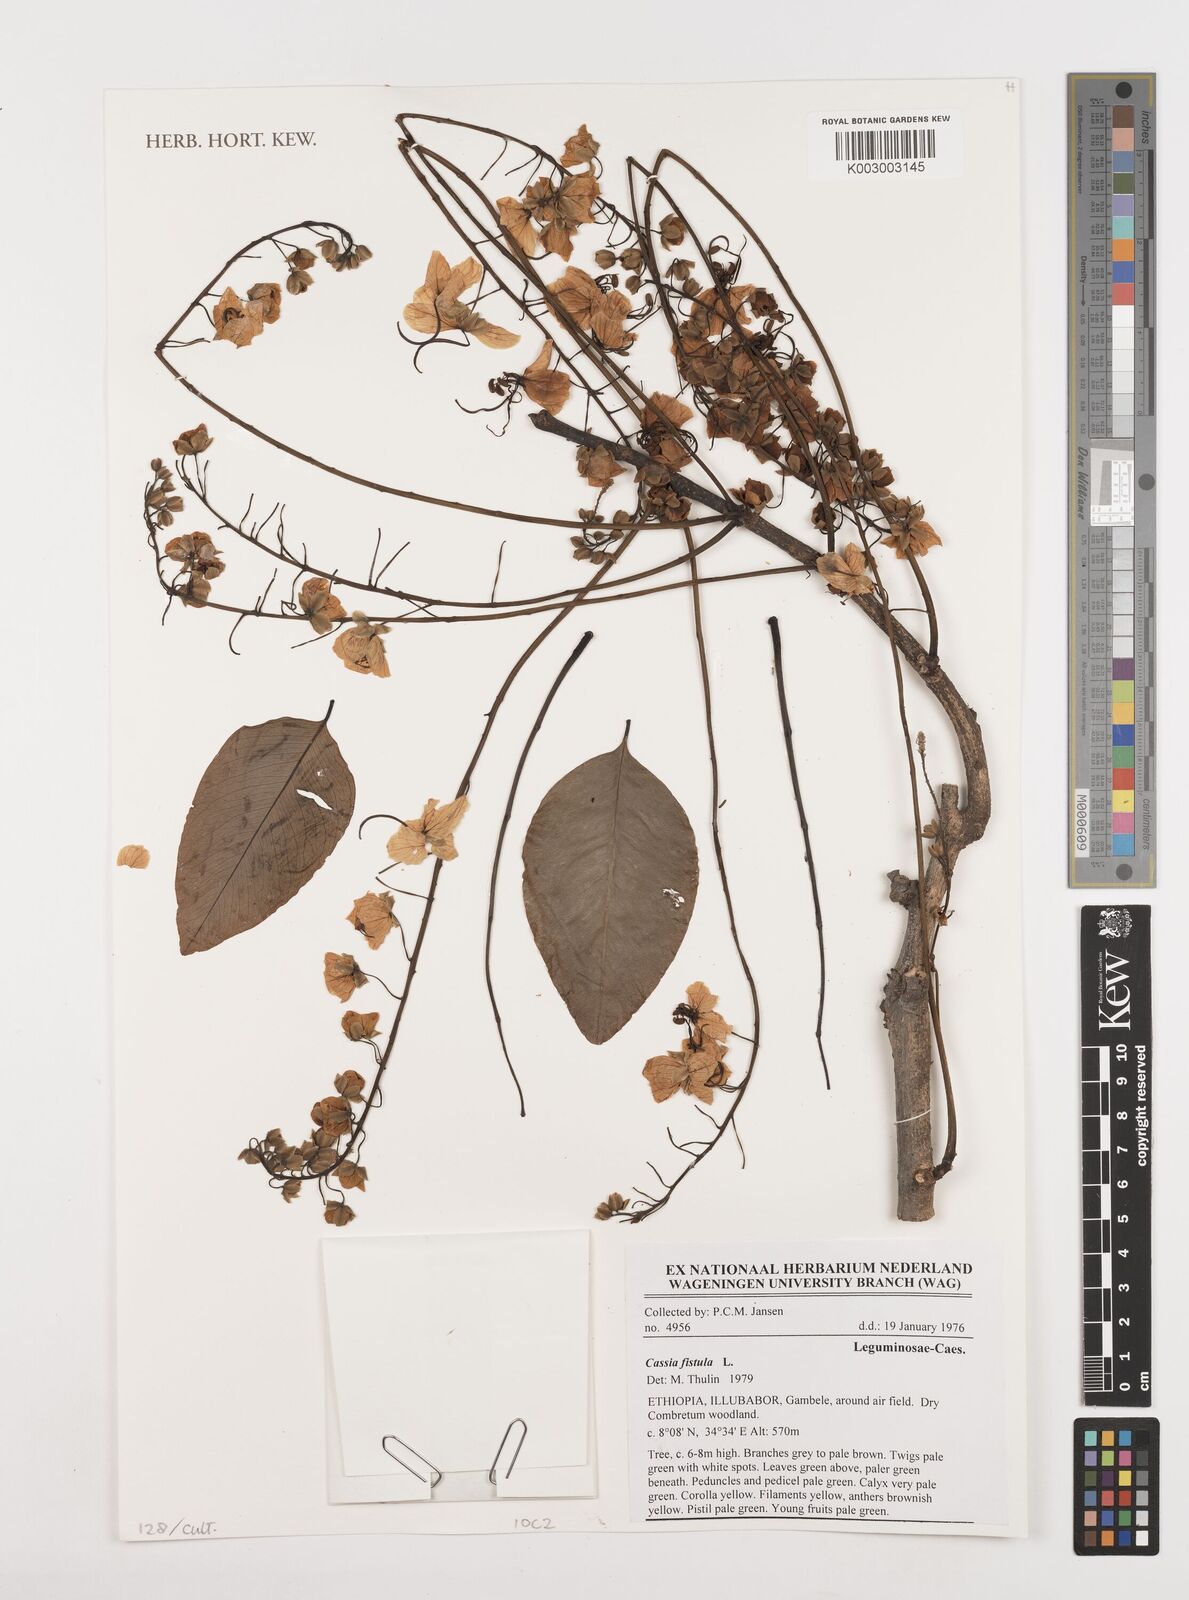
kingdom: Plantae
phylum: Tracheophyta
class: Magnoliopsida
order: Fabales
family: Fabaceae
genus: Cassia
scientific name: Cassia fistula
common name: Golden shower
